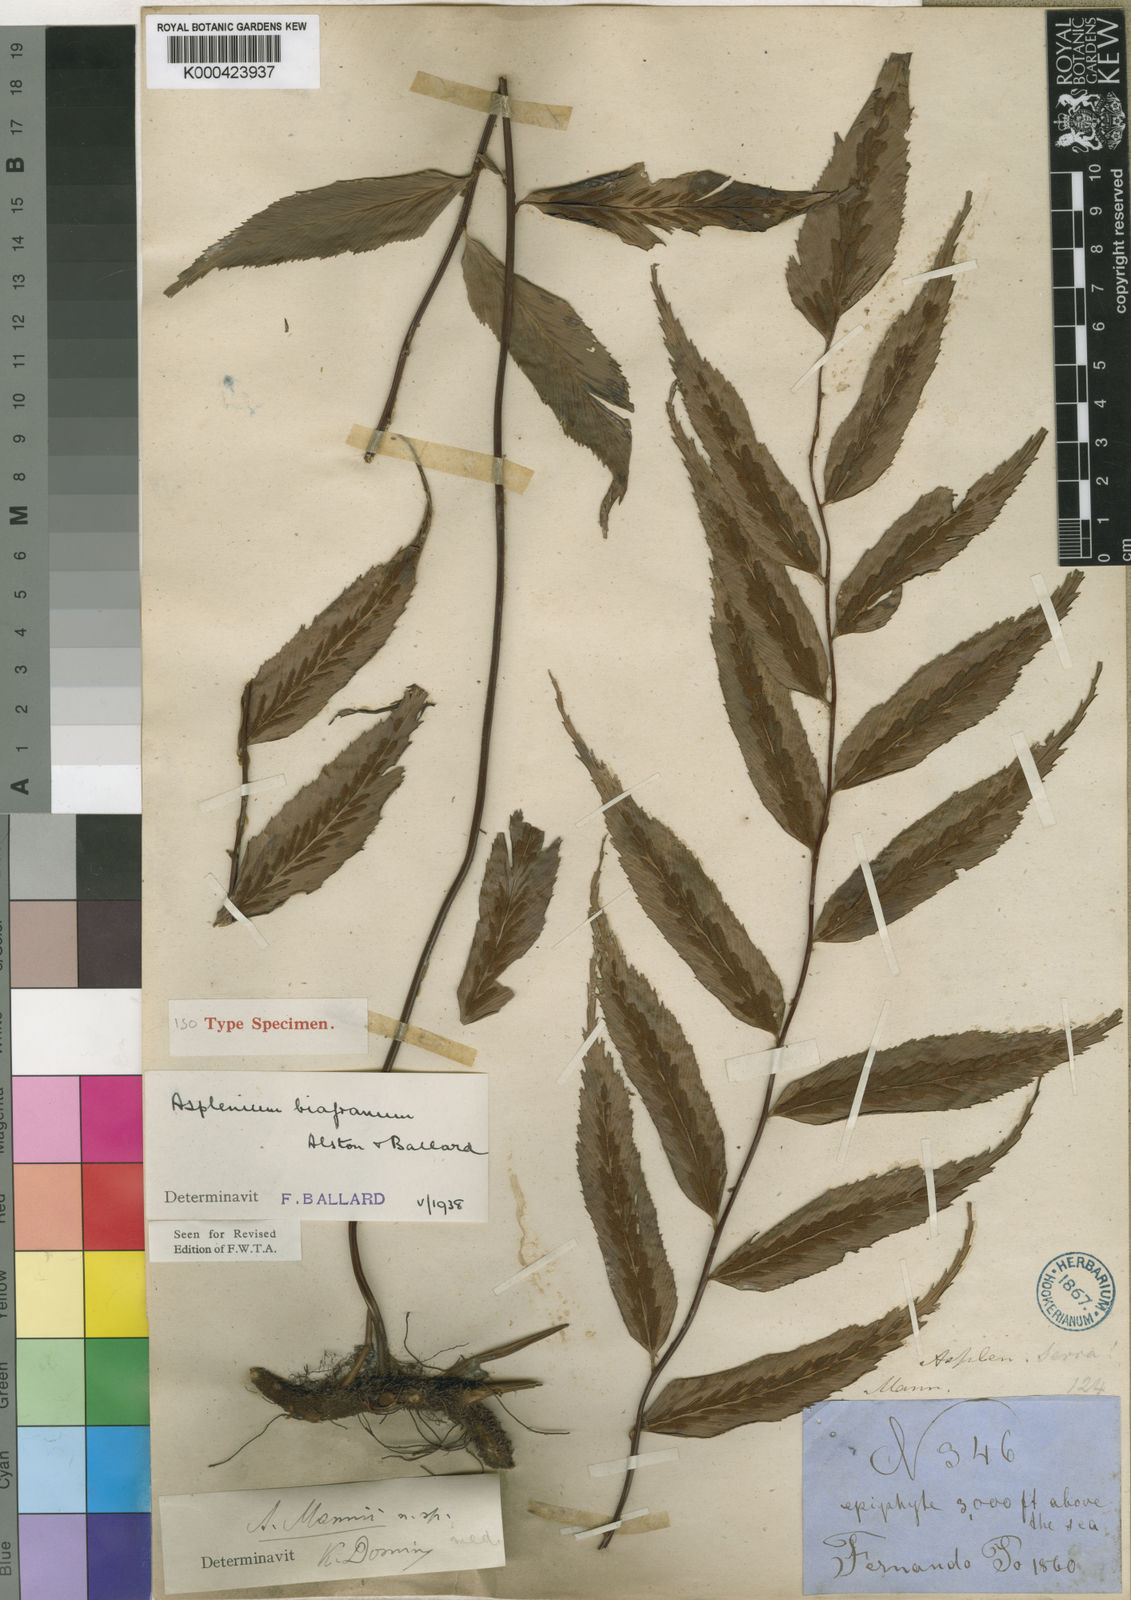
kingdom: Plantae
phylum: Tracheophyta
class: Polypodiopsida
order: Polypodiales
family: Aspleniaceae
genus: Asplenium
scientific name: Asplenium biafranum
